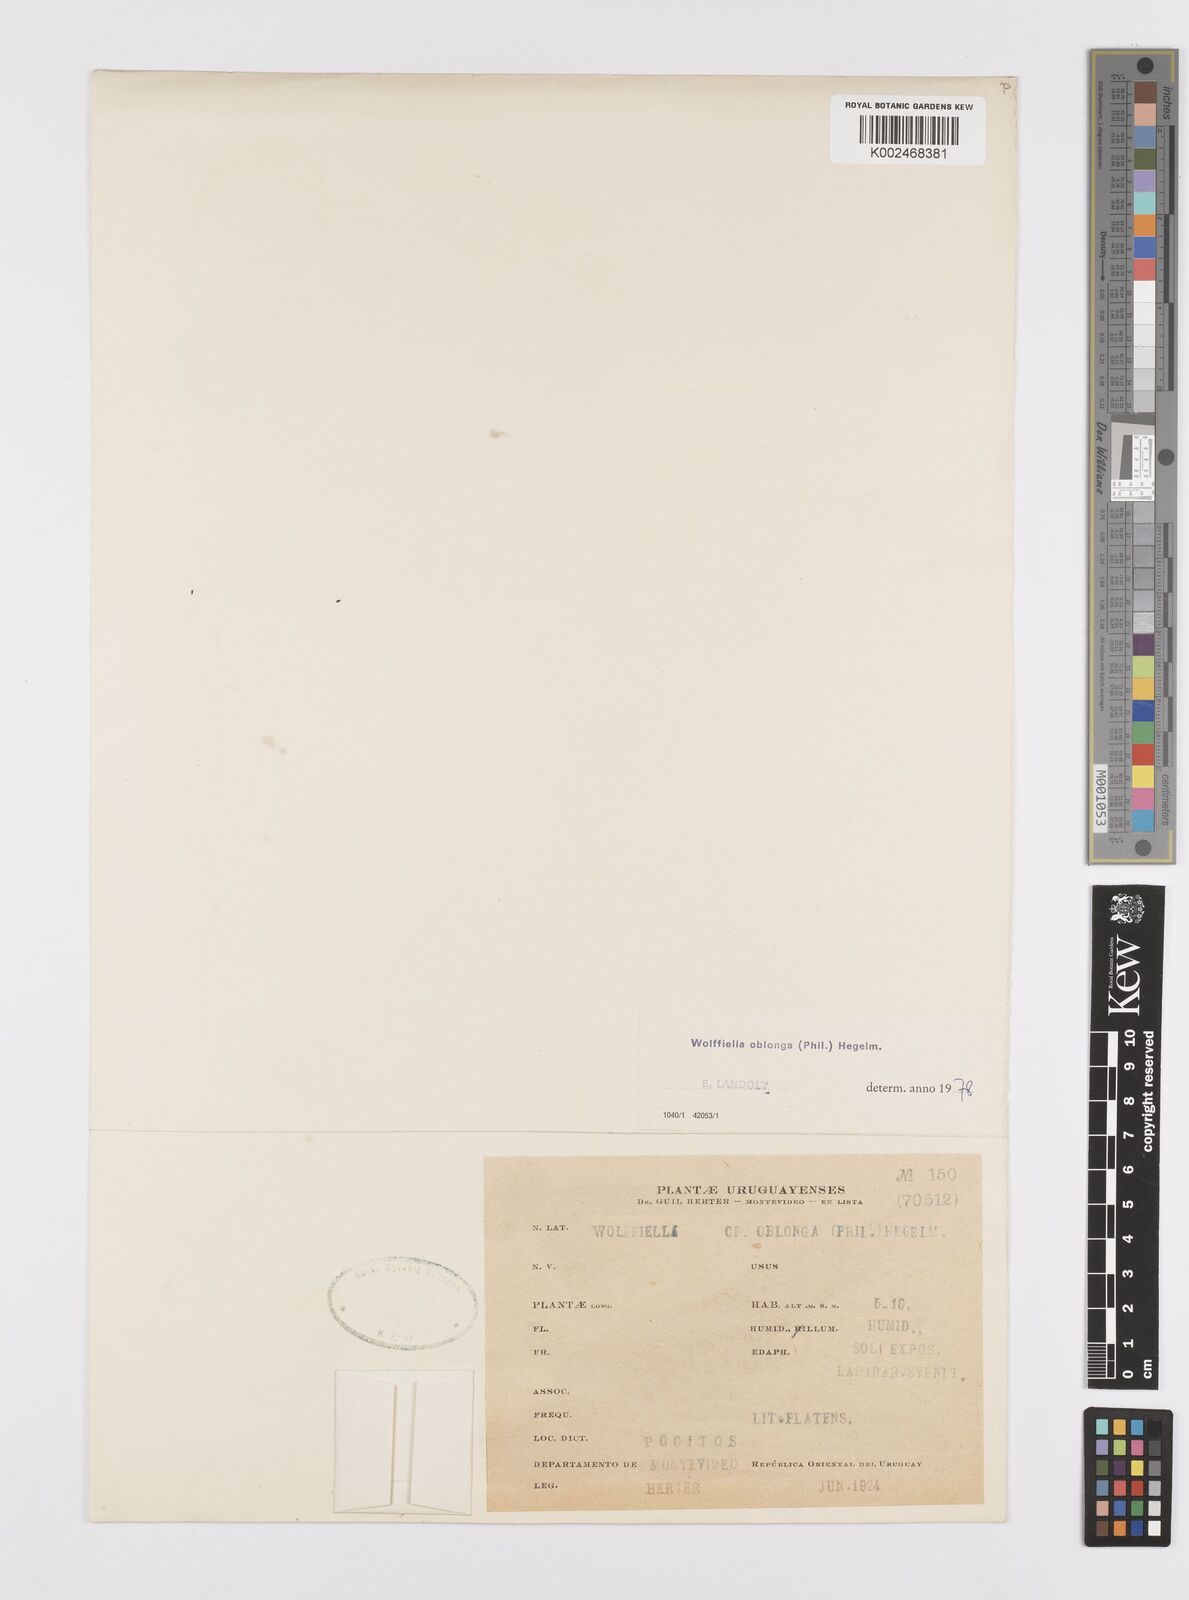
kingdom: Plantae
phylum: Tracheophyta
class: Liliopsida
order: Alismatales
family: Araceae
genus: Wolffiella
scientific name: Wolffiella oblonga
